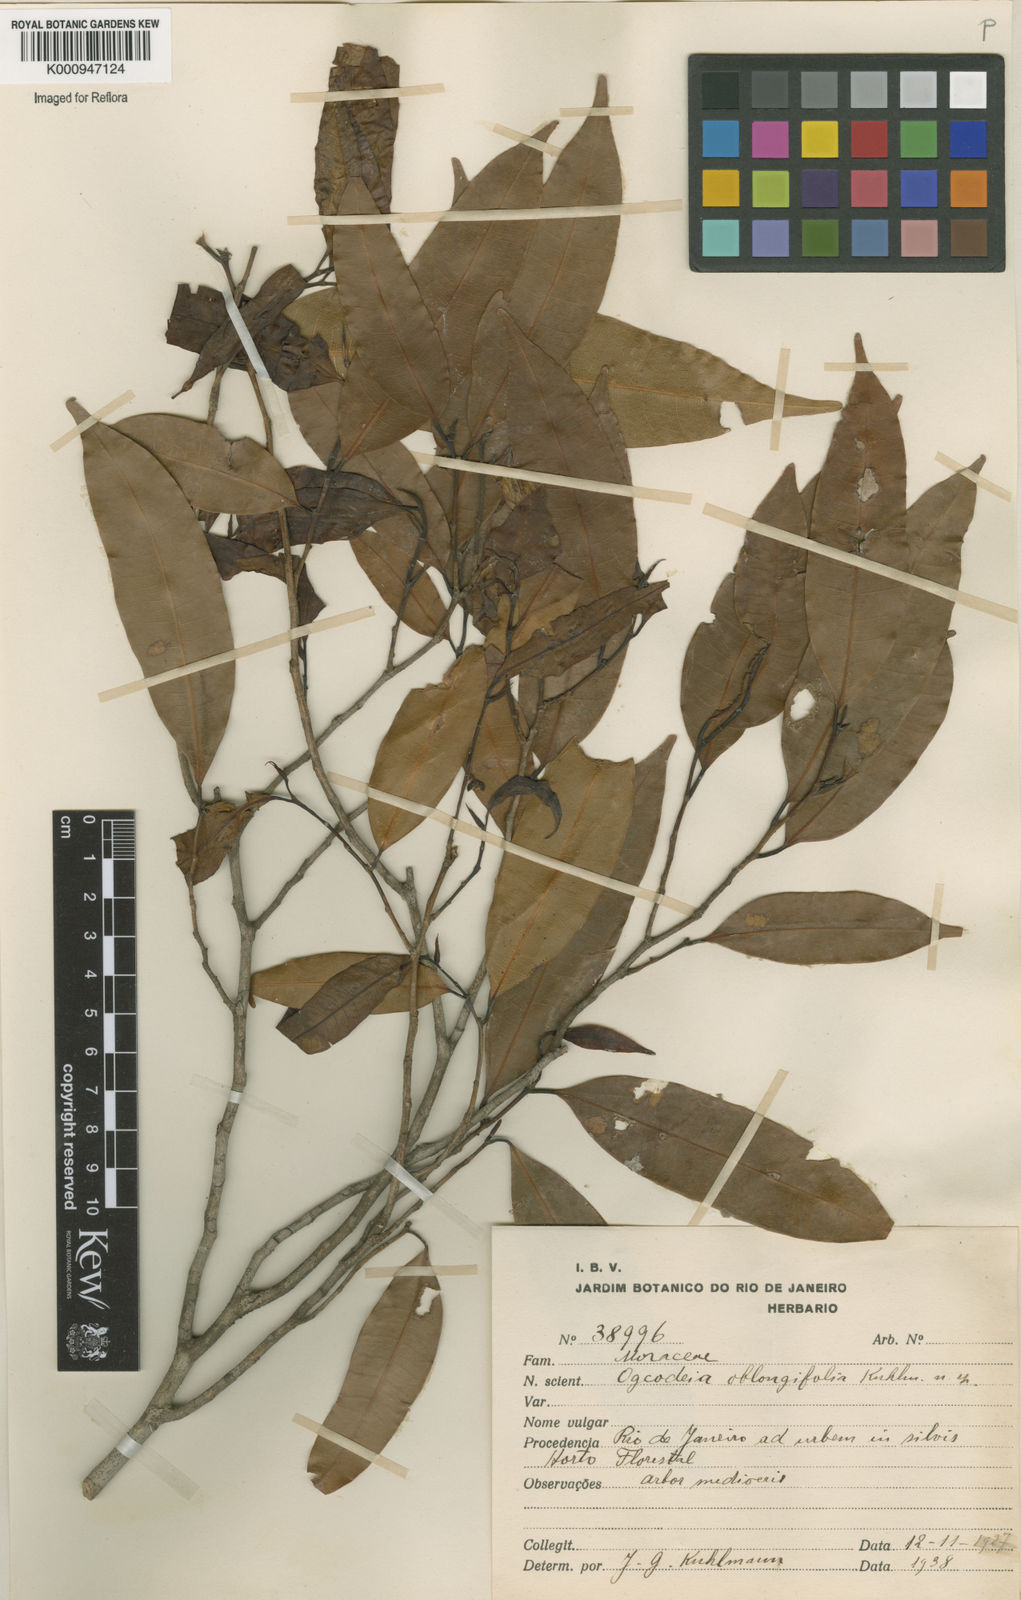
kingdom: Plantae
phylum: Tracheophyta
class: Magnoliopsida
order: Rosales
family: Moraceae
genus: Naucleopsis
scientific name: Naucleopsis oblongifolia
